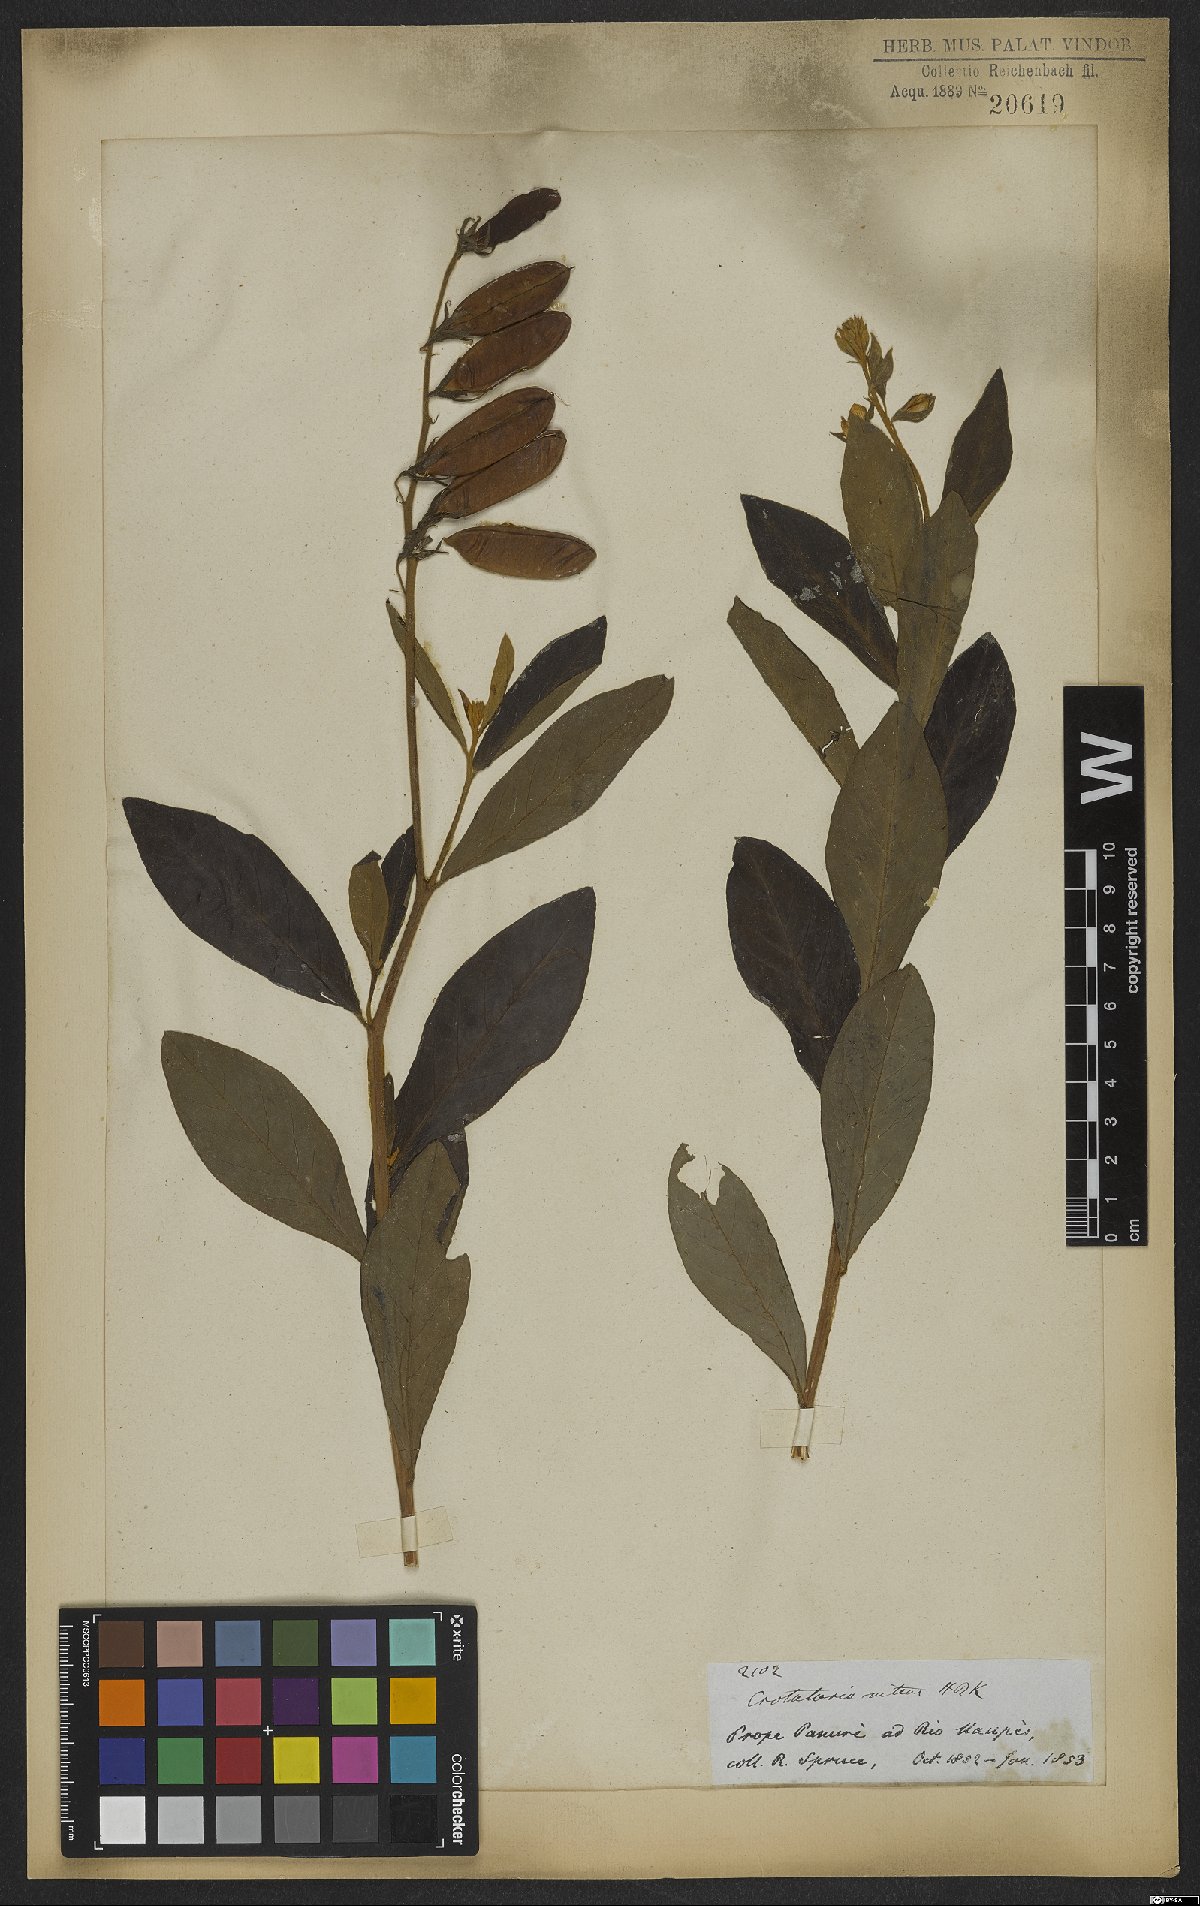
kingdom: Plantae
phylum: Tracheophyta
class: Magnoliopsida
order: Fabales
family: Fabaceae
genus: Crotalaria
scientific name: Crotalaria nitens
